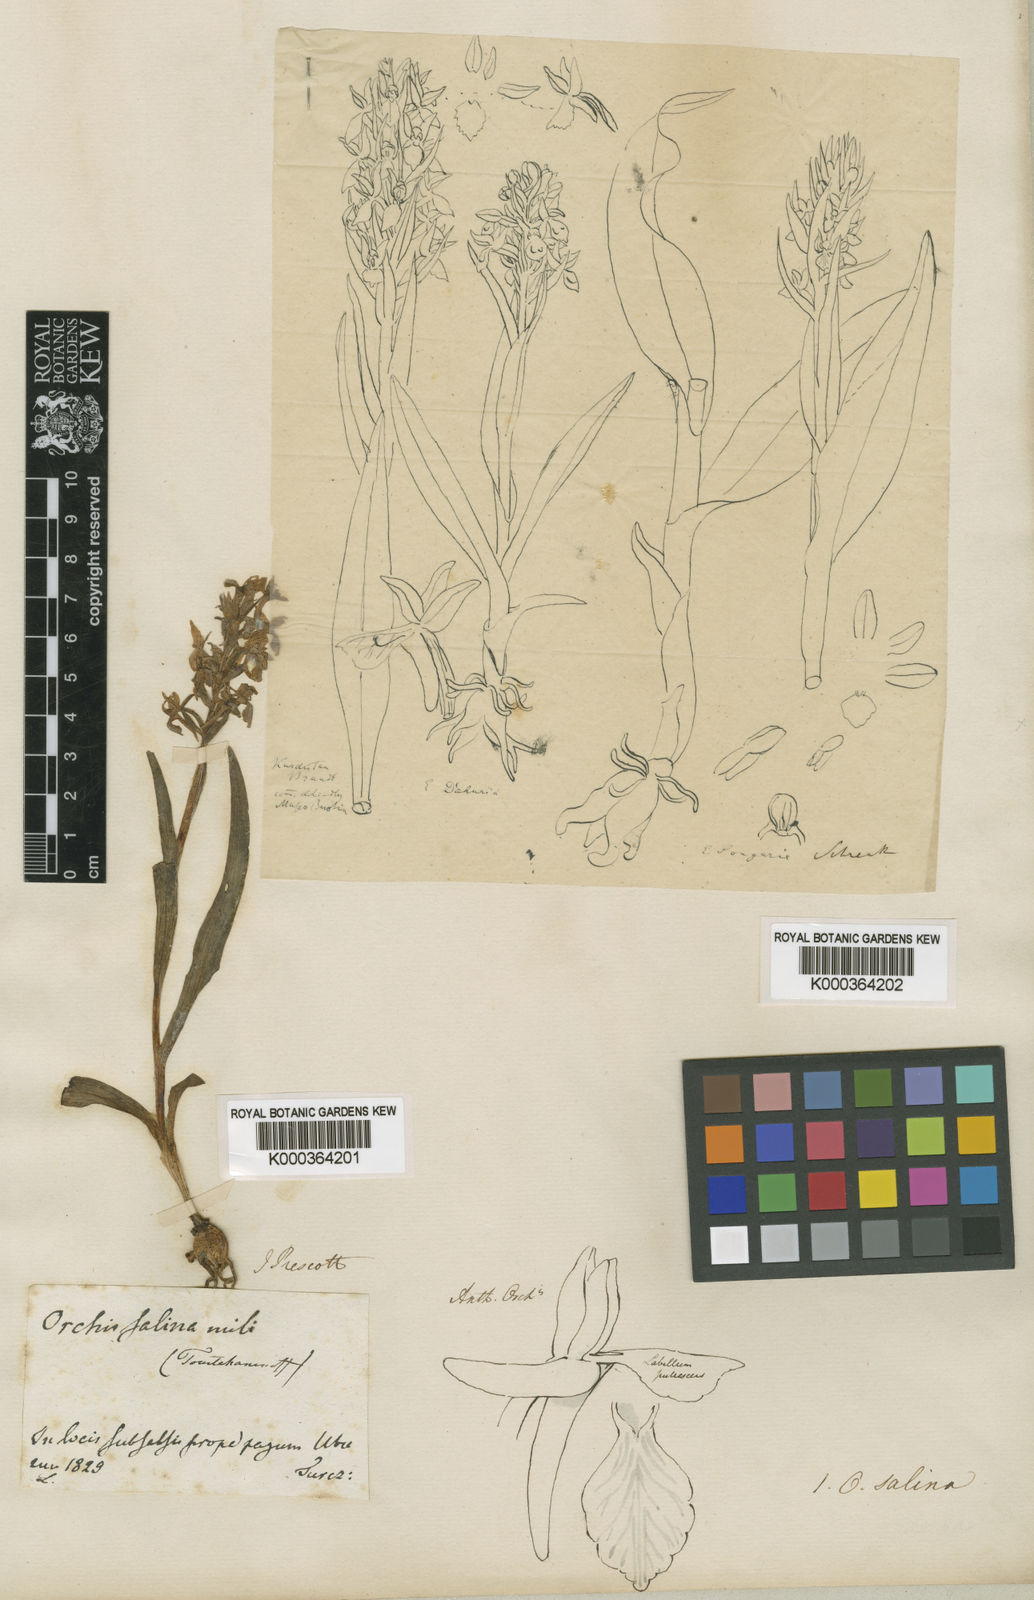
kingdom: Plantae
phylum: Tracheophyta
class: Liliopsida
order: Asparagales
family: Orchidaceae
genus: Dactylorhiza
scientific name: Dactylorhiza
